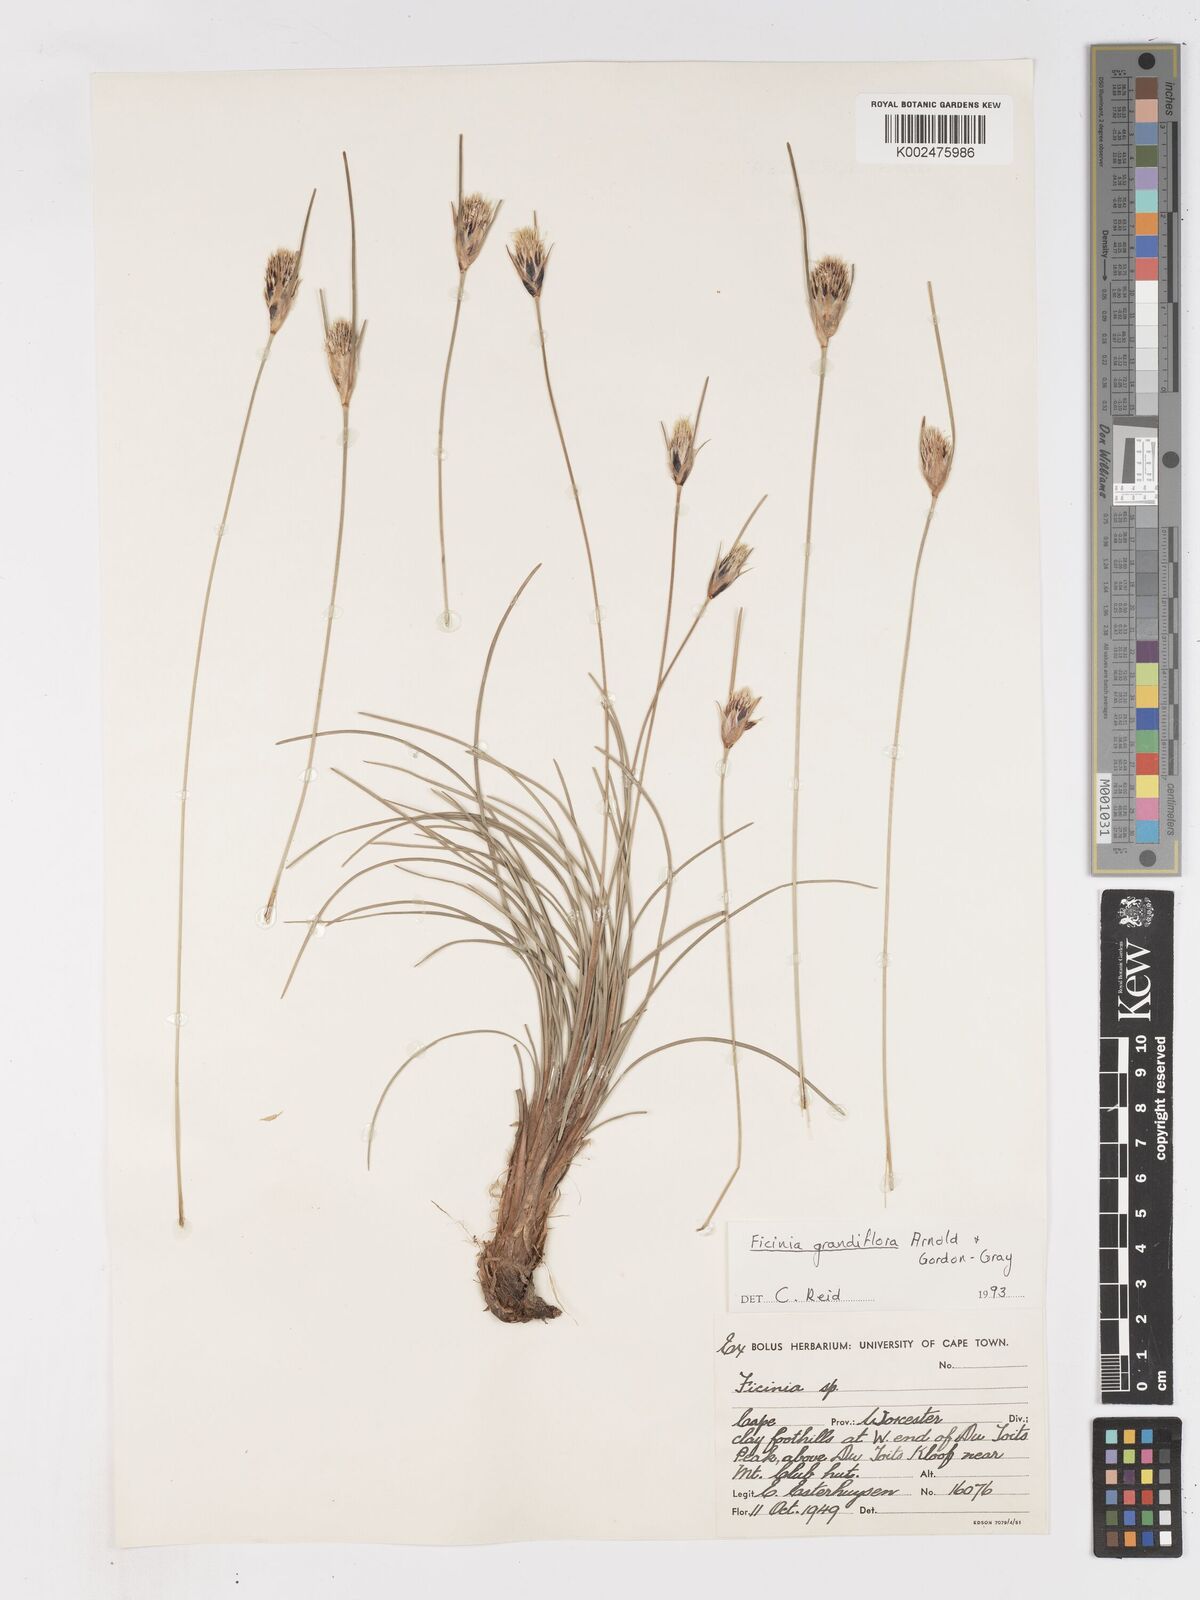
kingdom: Plantae
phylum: Tracheophyta
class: Liliopsida
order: Poales
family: Cyperaceae
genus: Ficinia
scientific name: Ficinia grandiflora
